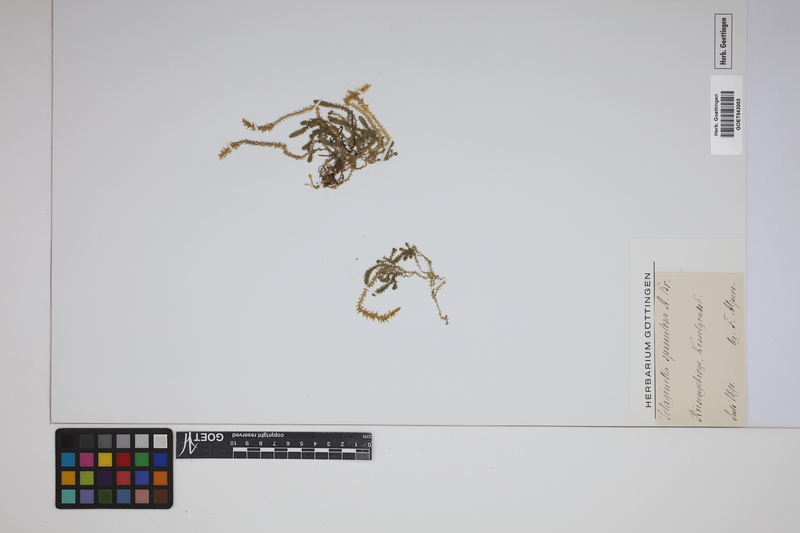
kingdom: Plantae
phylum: Tracheophyta
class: Lycopodiopsida
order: Selaginellales
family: Selaginellaceae
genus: Selaginella
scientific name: Selaginella selaginoides
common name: Prickly mountain-moss
